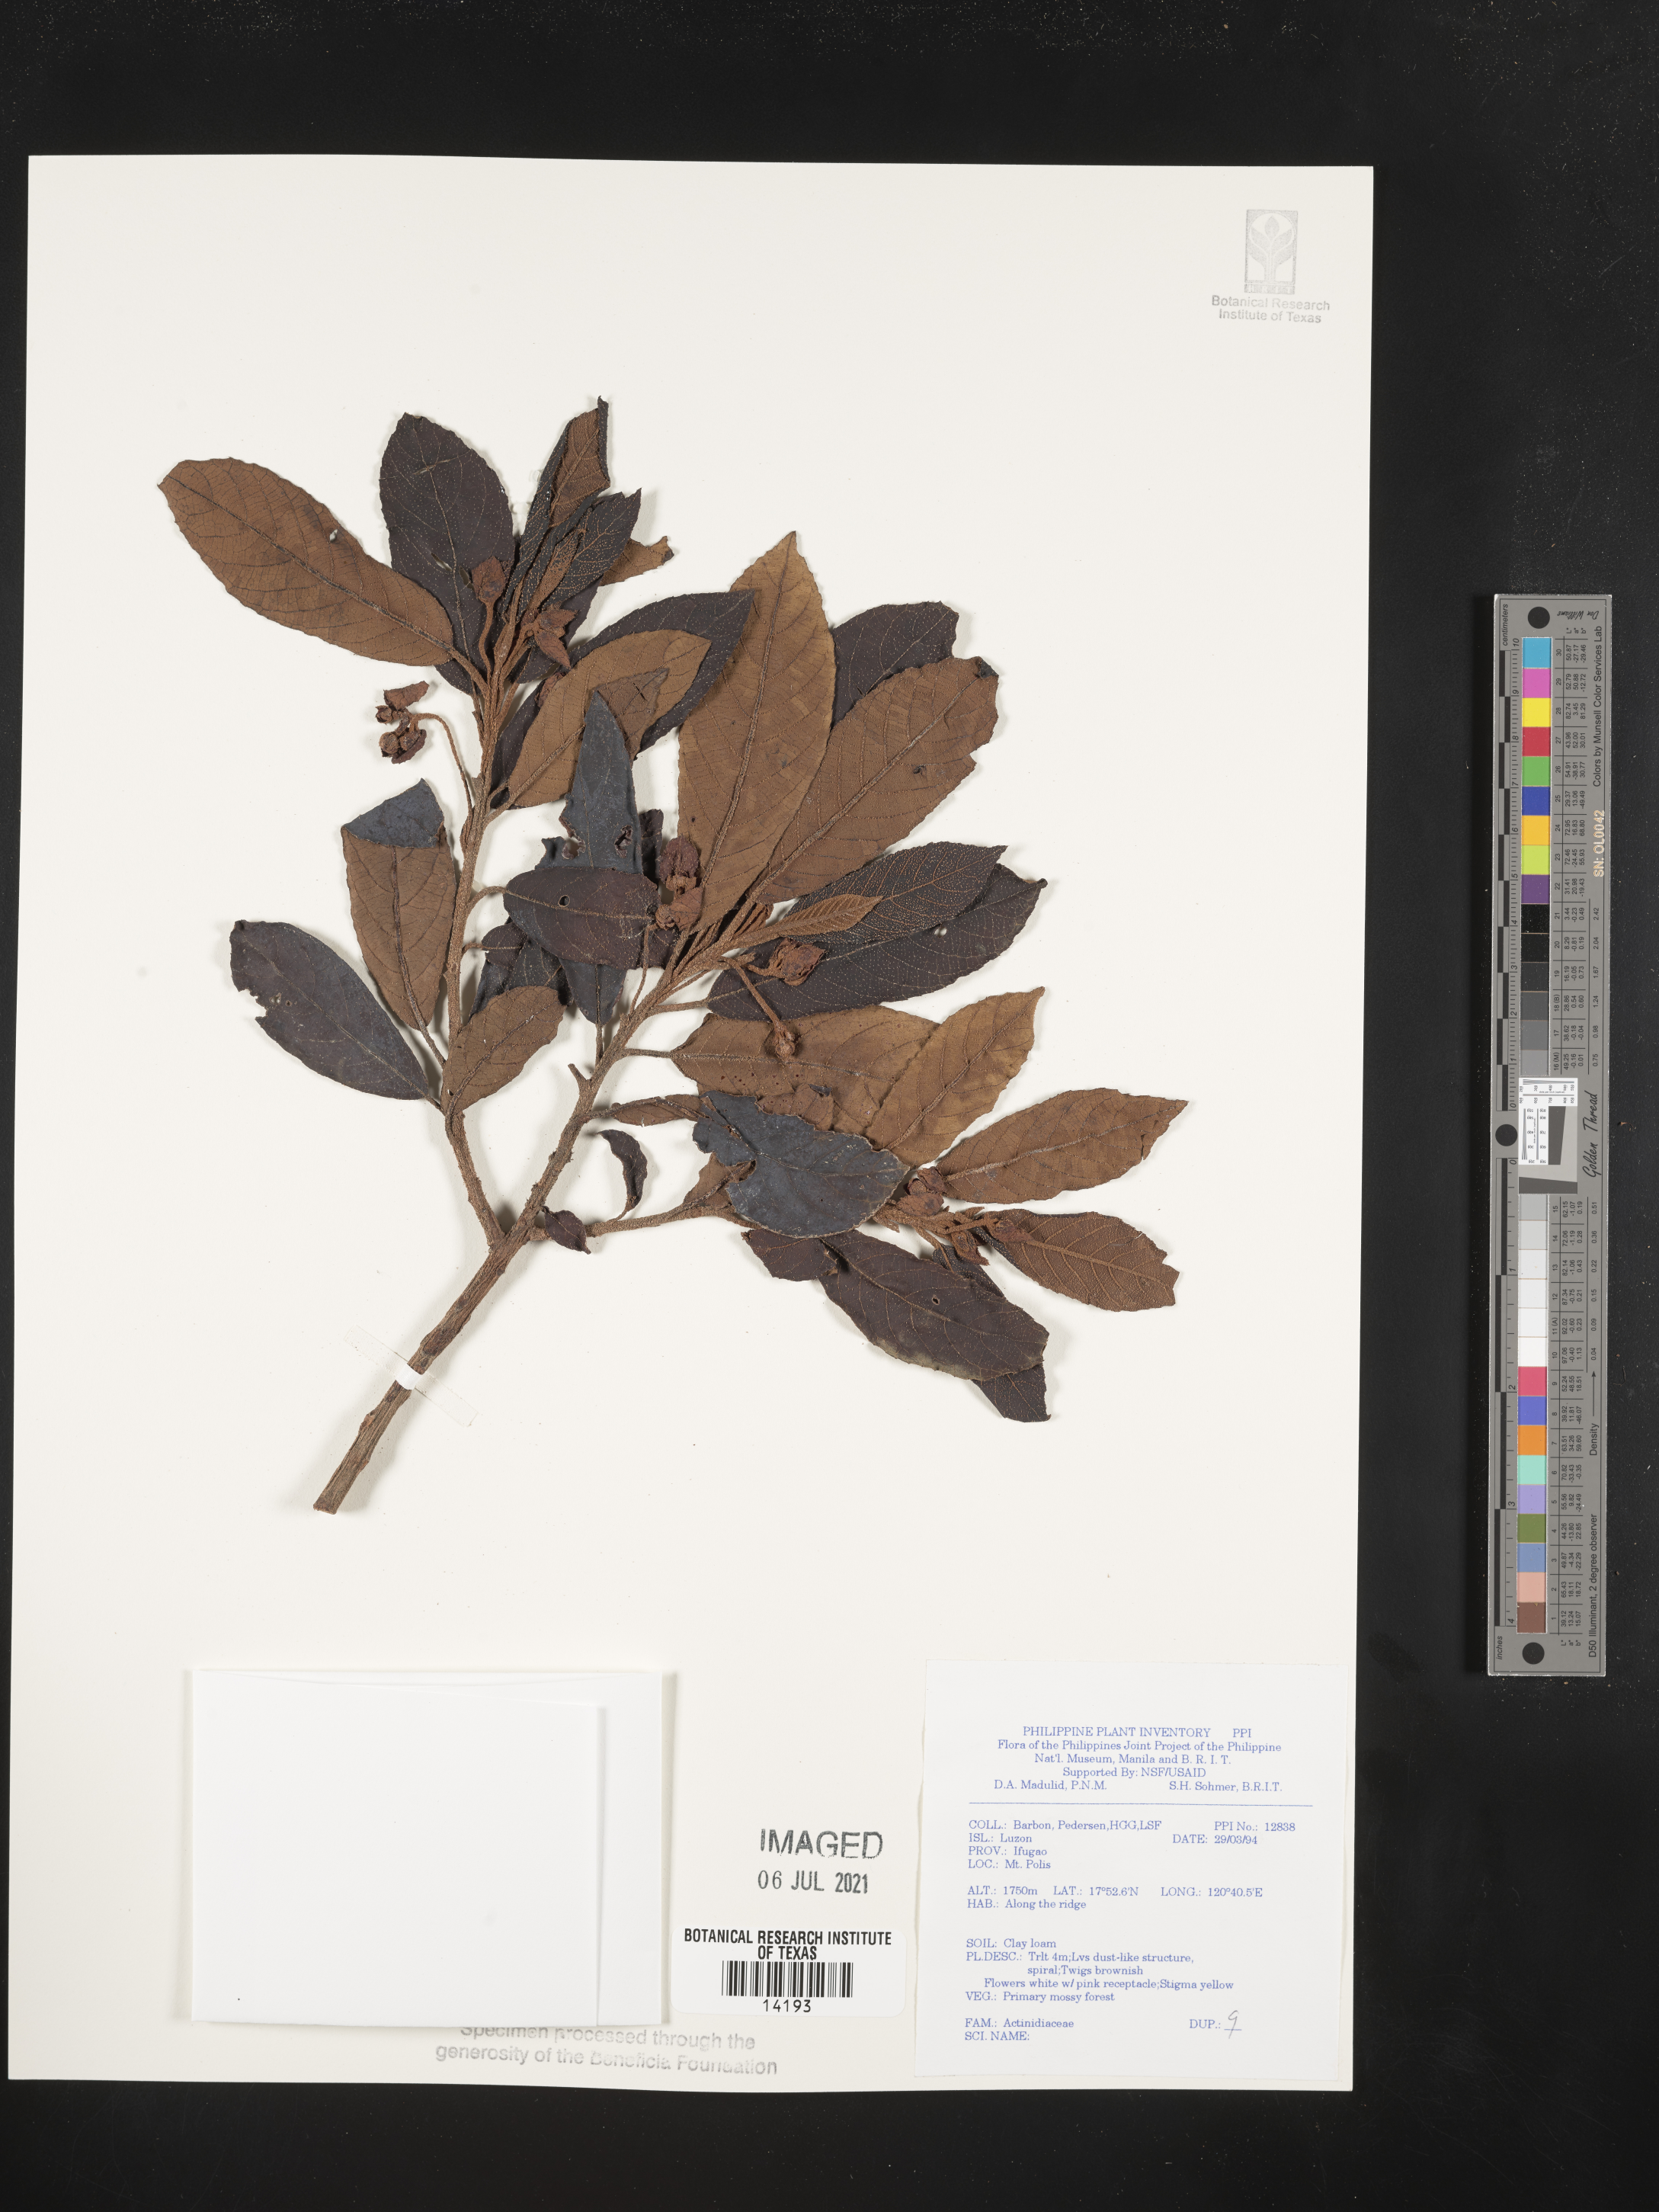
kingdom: Plantae
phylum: Tracheophyta
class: Magnoliopsida
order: Ericales
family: Actinidiaceae
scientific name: Actinidiaceae
